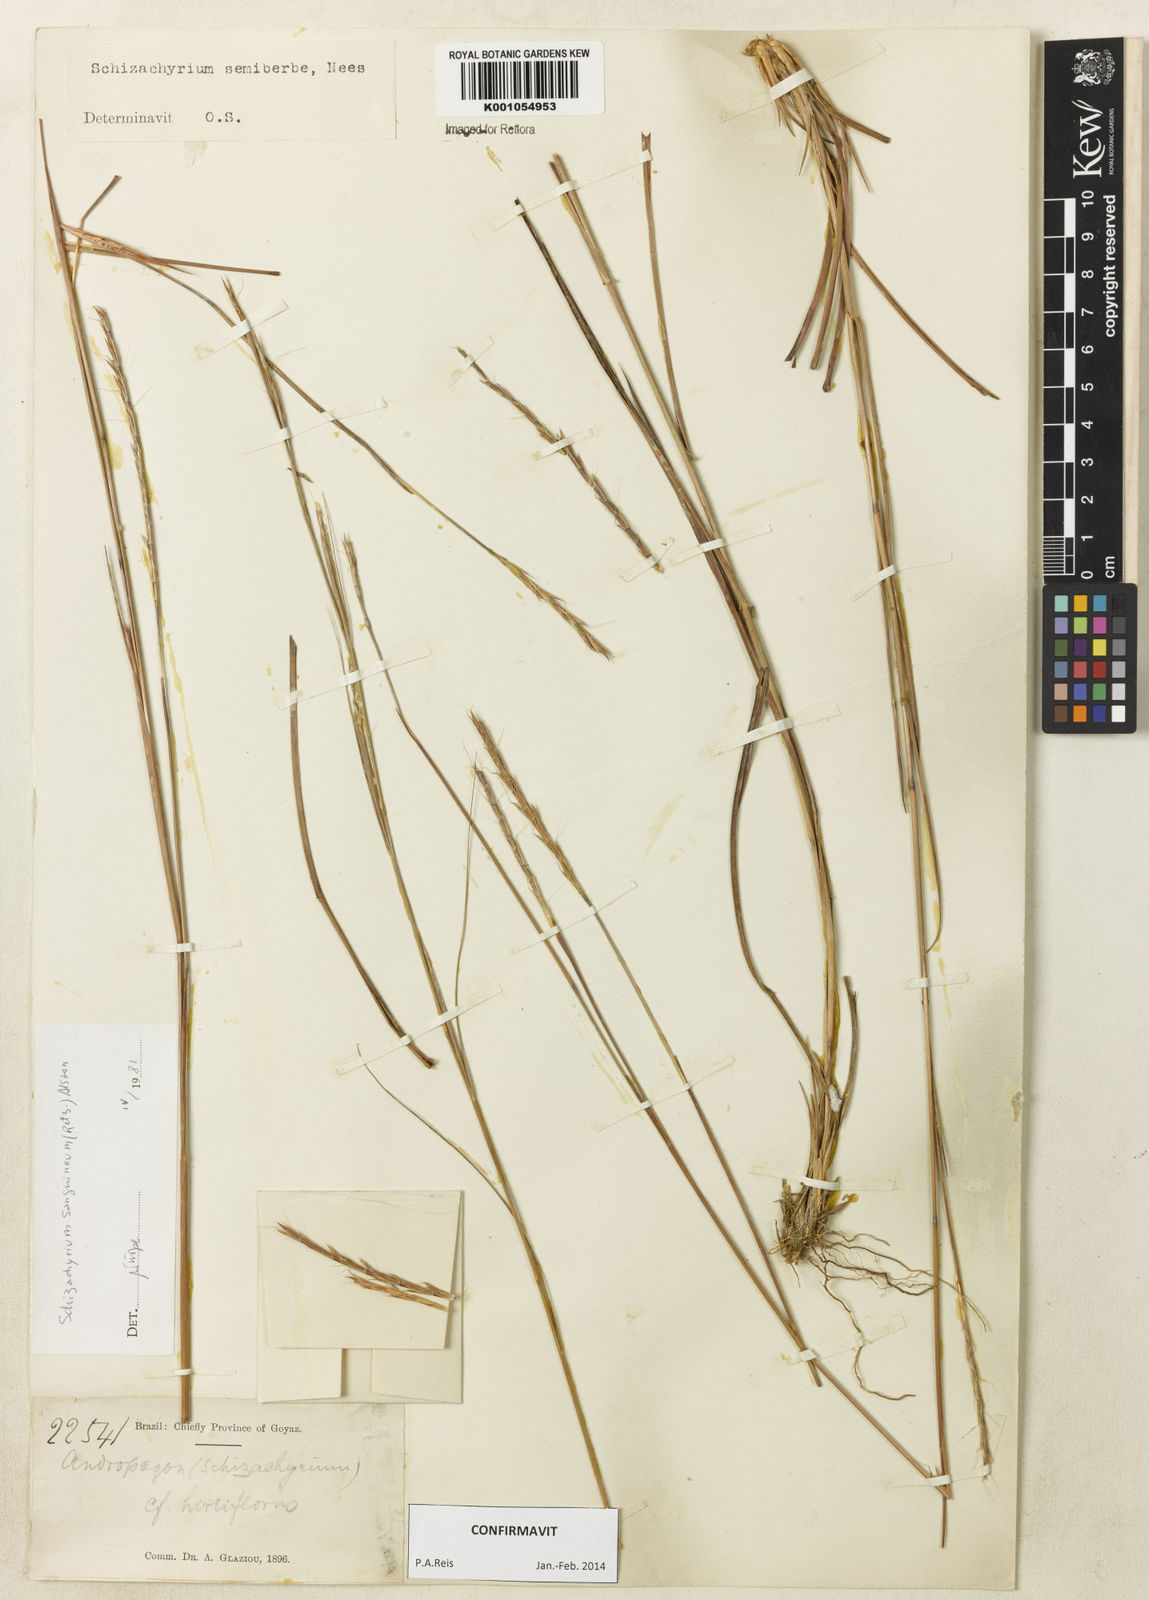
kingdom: Plantae
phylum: Tracheophyta
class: Liliopsida
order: Poales
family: Poaceae
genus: Schizachyrium
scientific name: Schizachyrium sanguineum
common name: Crimson bluestem
